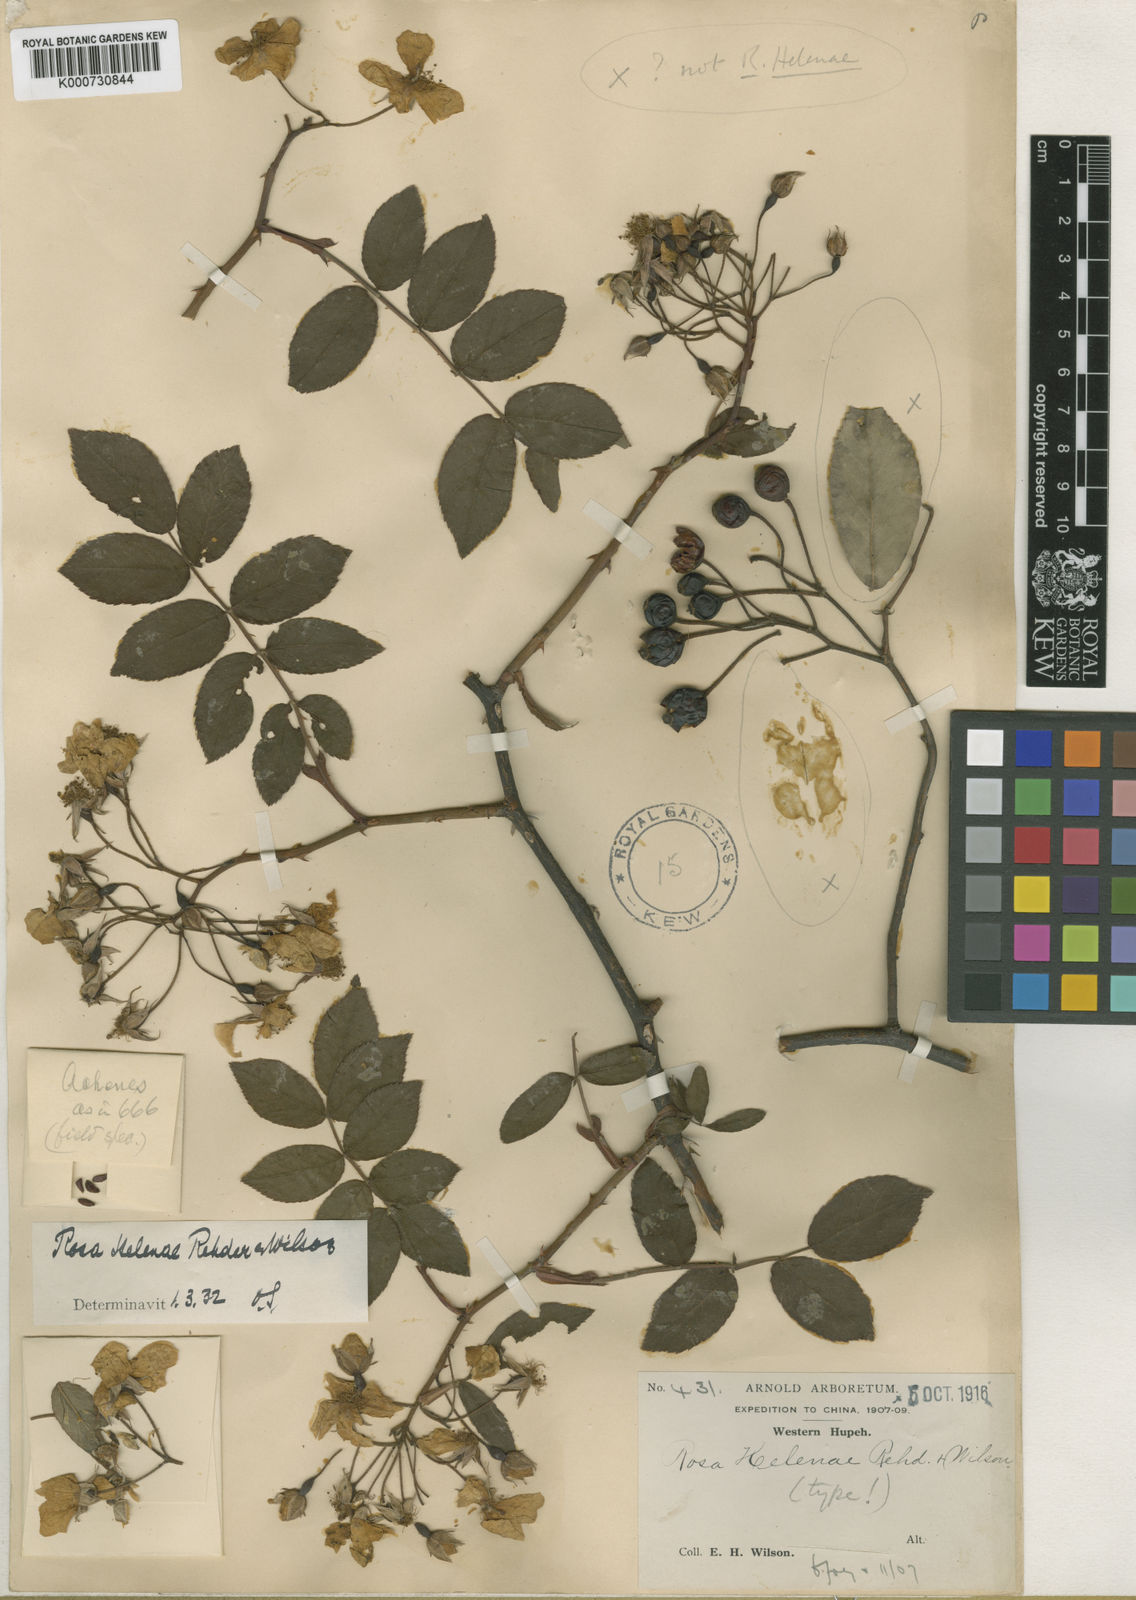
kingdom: Plantae
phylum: Tracheophyta
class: Magnoliopsida
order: Rosales
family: Rosaceae
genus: Rosa
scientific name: Rosa helenae
